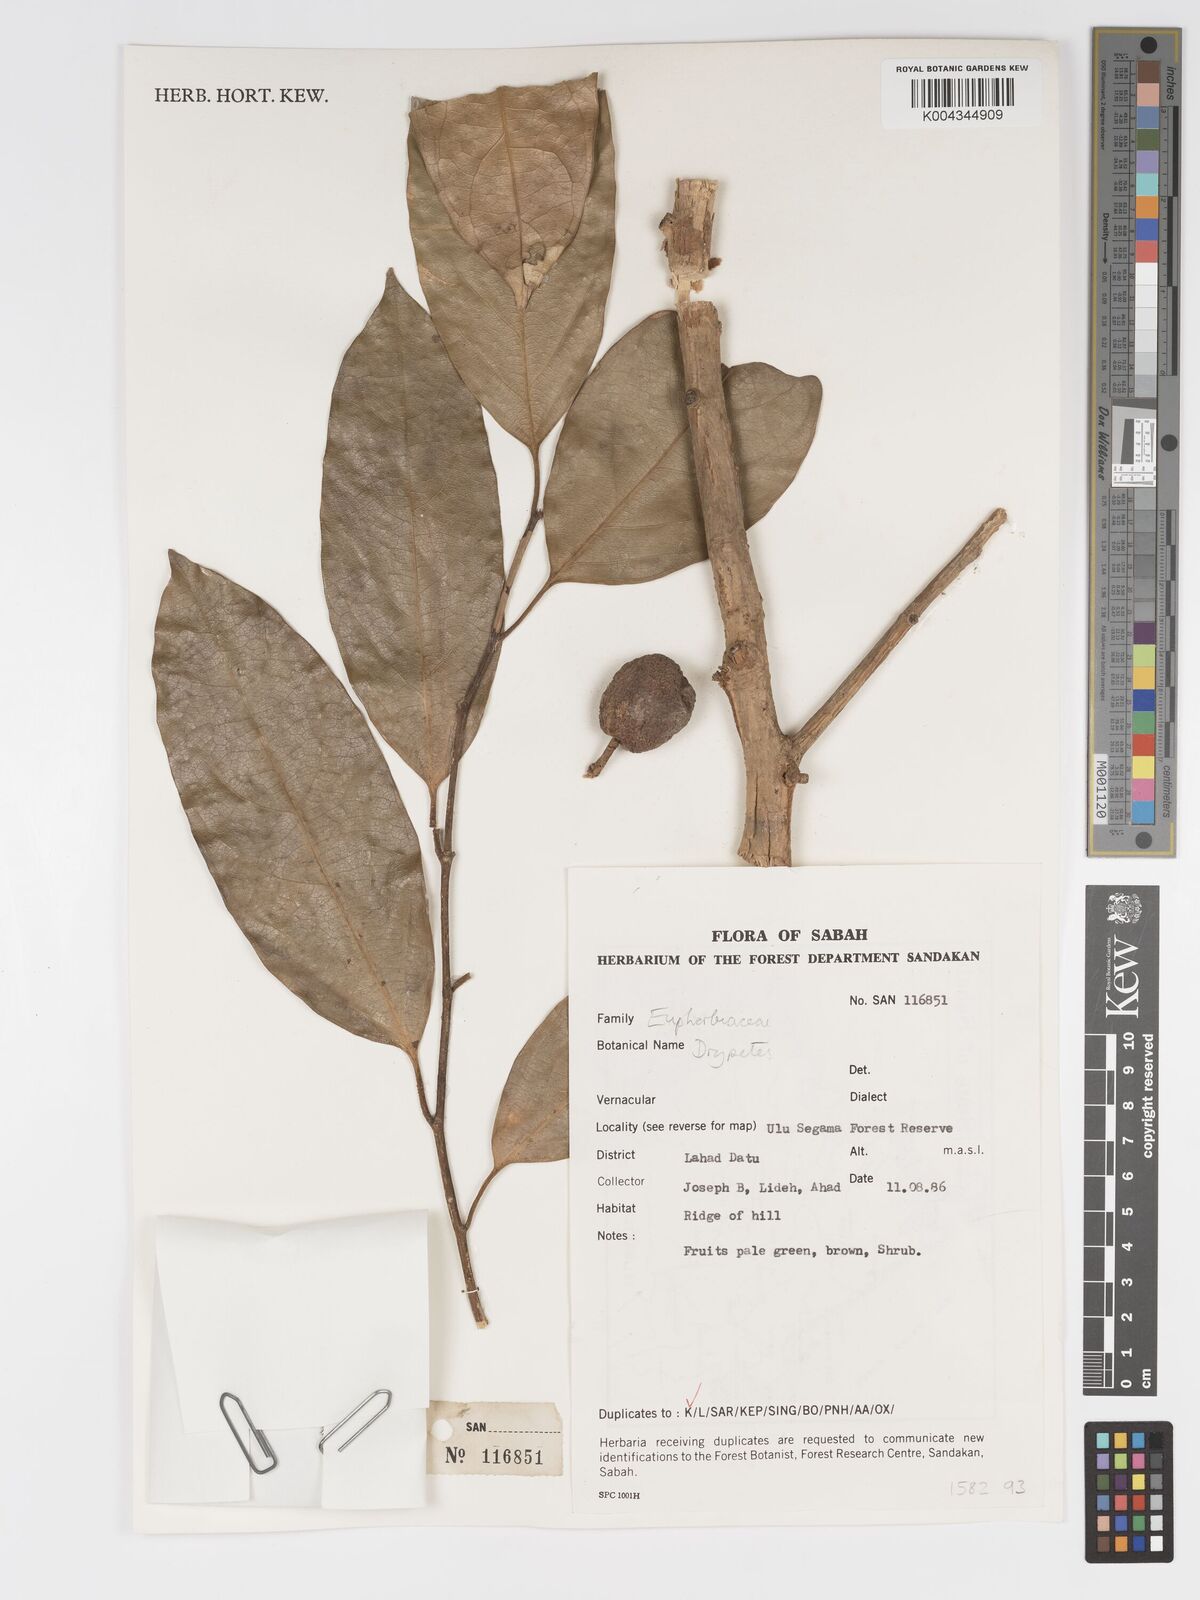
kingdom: Plantae
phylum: Tracheophyta
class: Magnoliopsida
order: Malpighiales
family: Putranjivaceae
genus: Drypetes
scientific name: Drypetes
